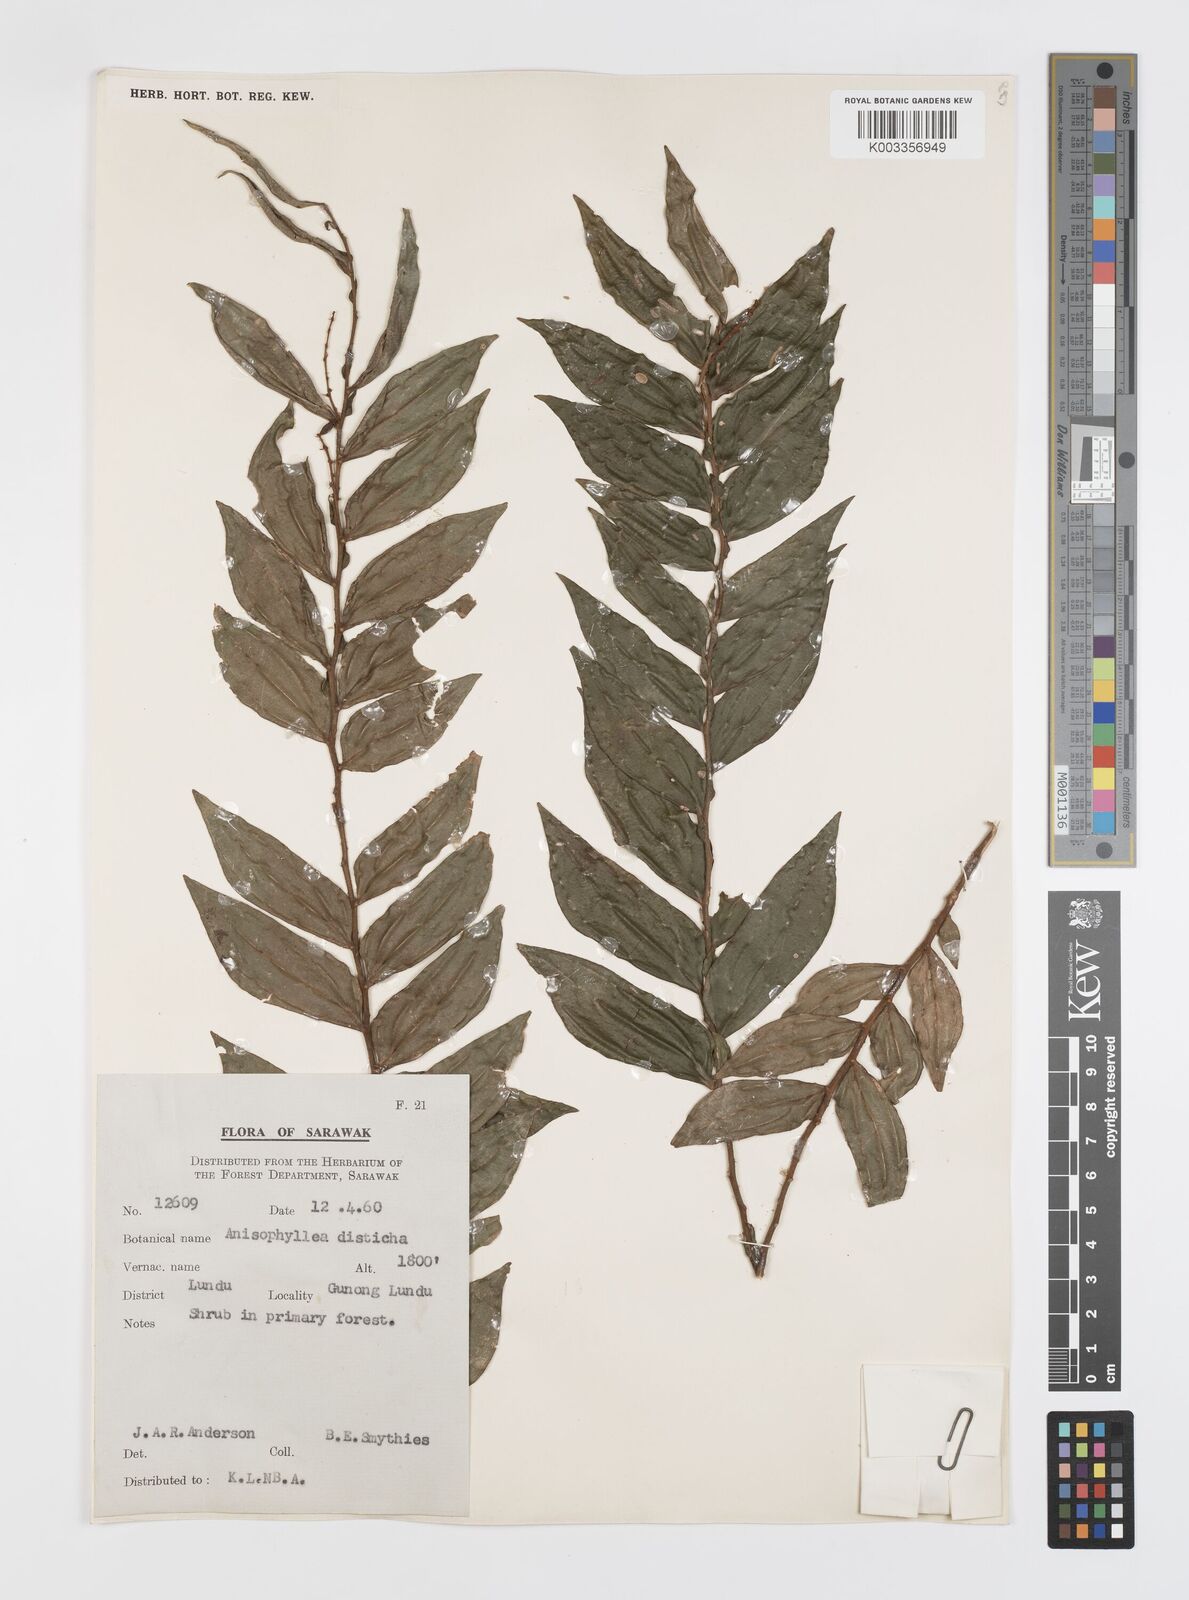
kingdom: Plantae
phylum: Tracheophyta
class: Magnoliopsida
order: Cucurbitales
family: Anisophylleaceae
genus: Anisophyllea
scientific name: Anisophyllea disticha
